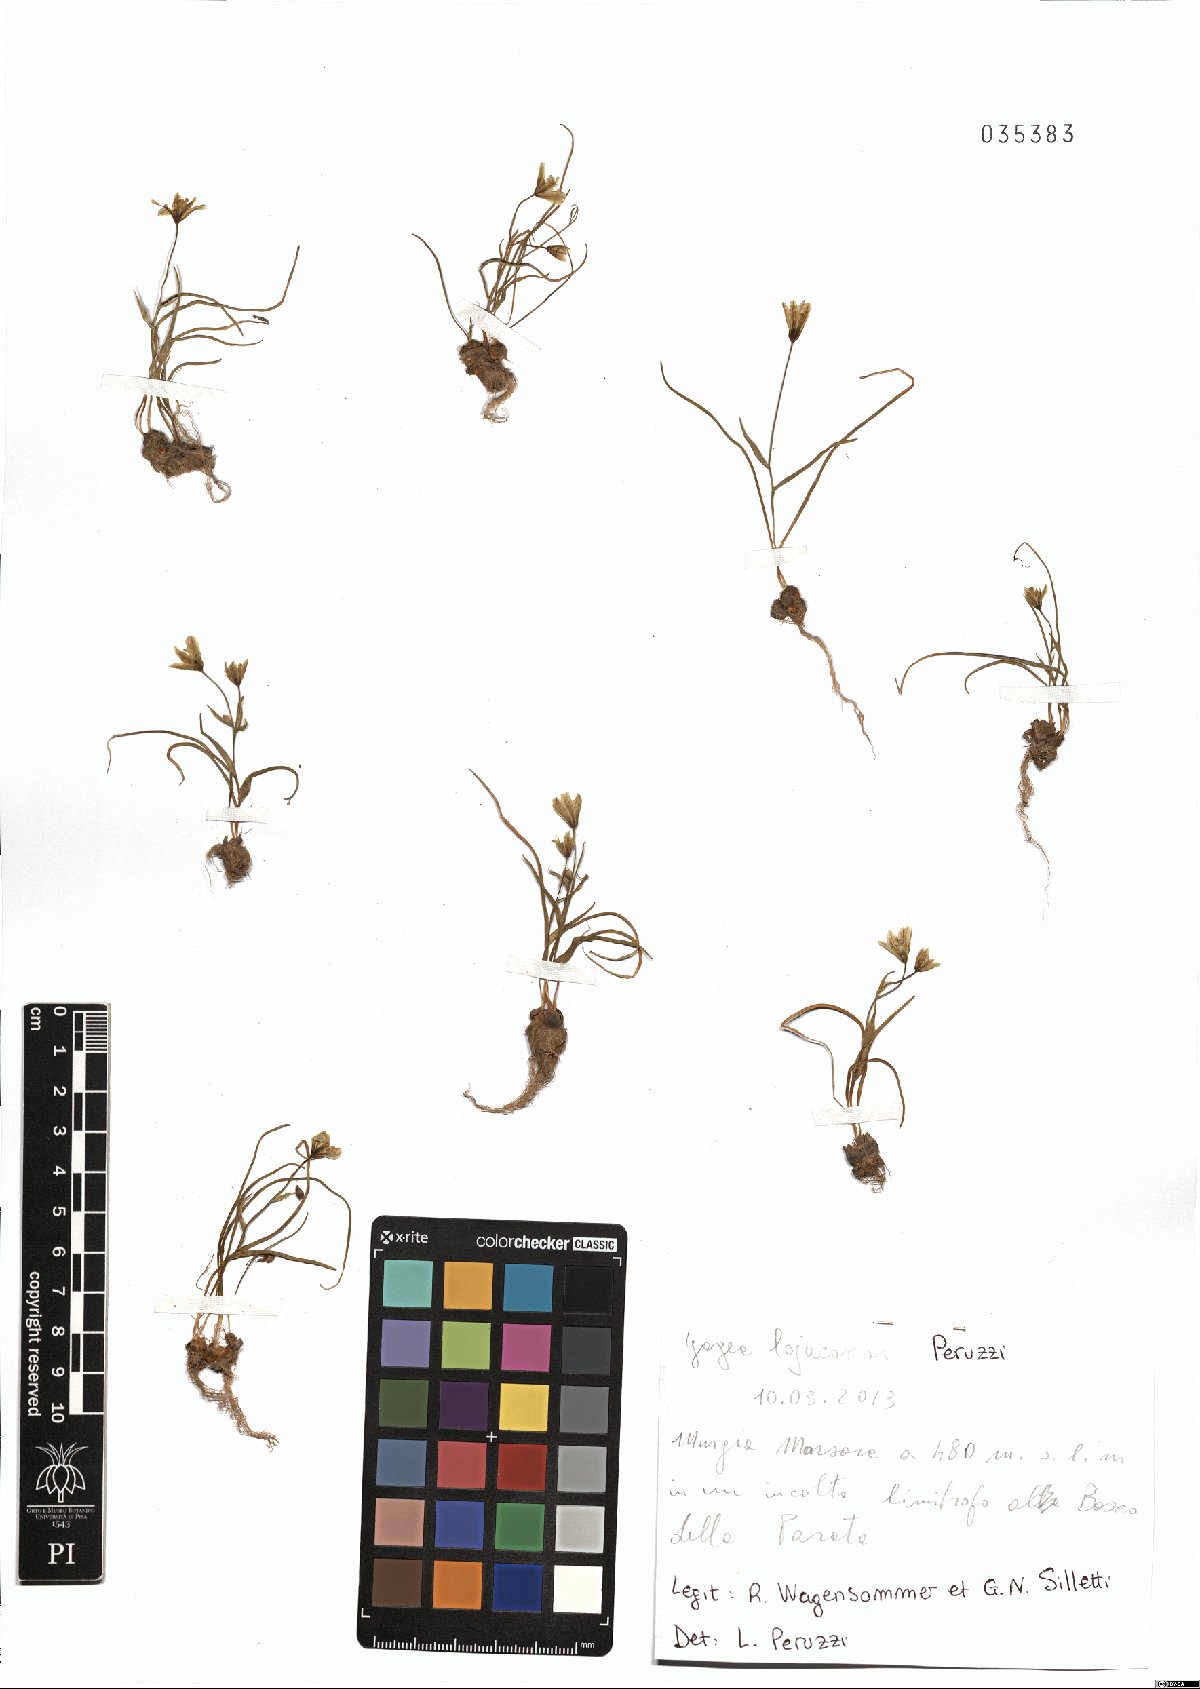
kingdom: Plantae
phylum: Tracheophyta
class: Liliopsida
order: Liliales
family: Liliaceae
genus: Gagea
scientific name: Gagea lojaconoi
